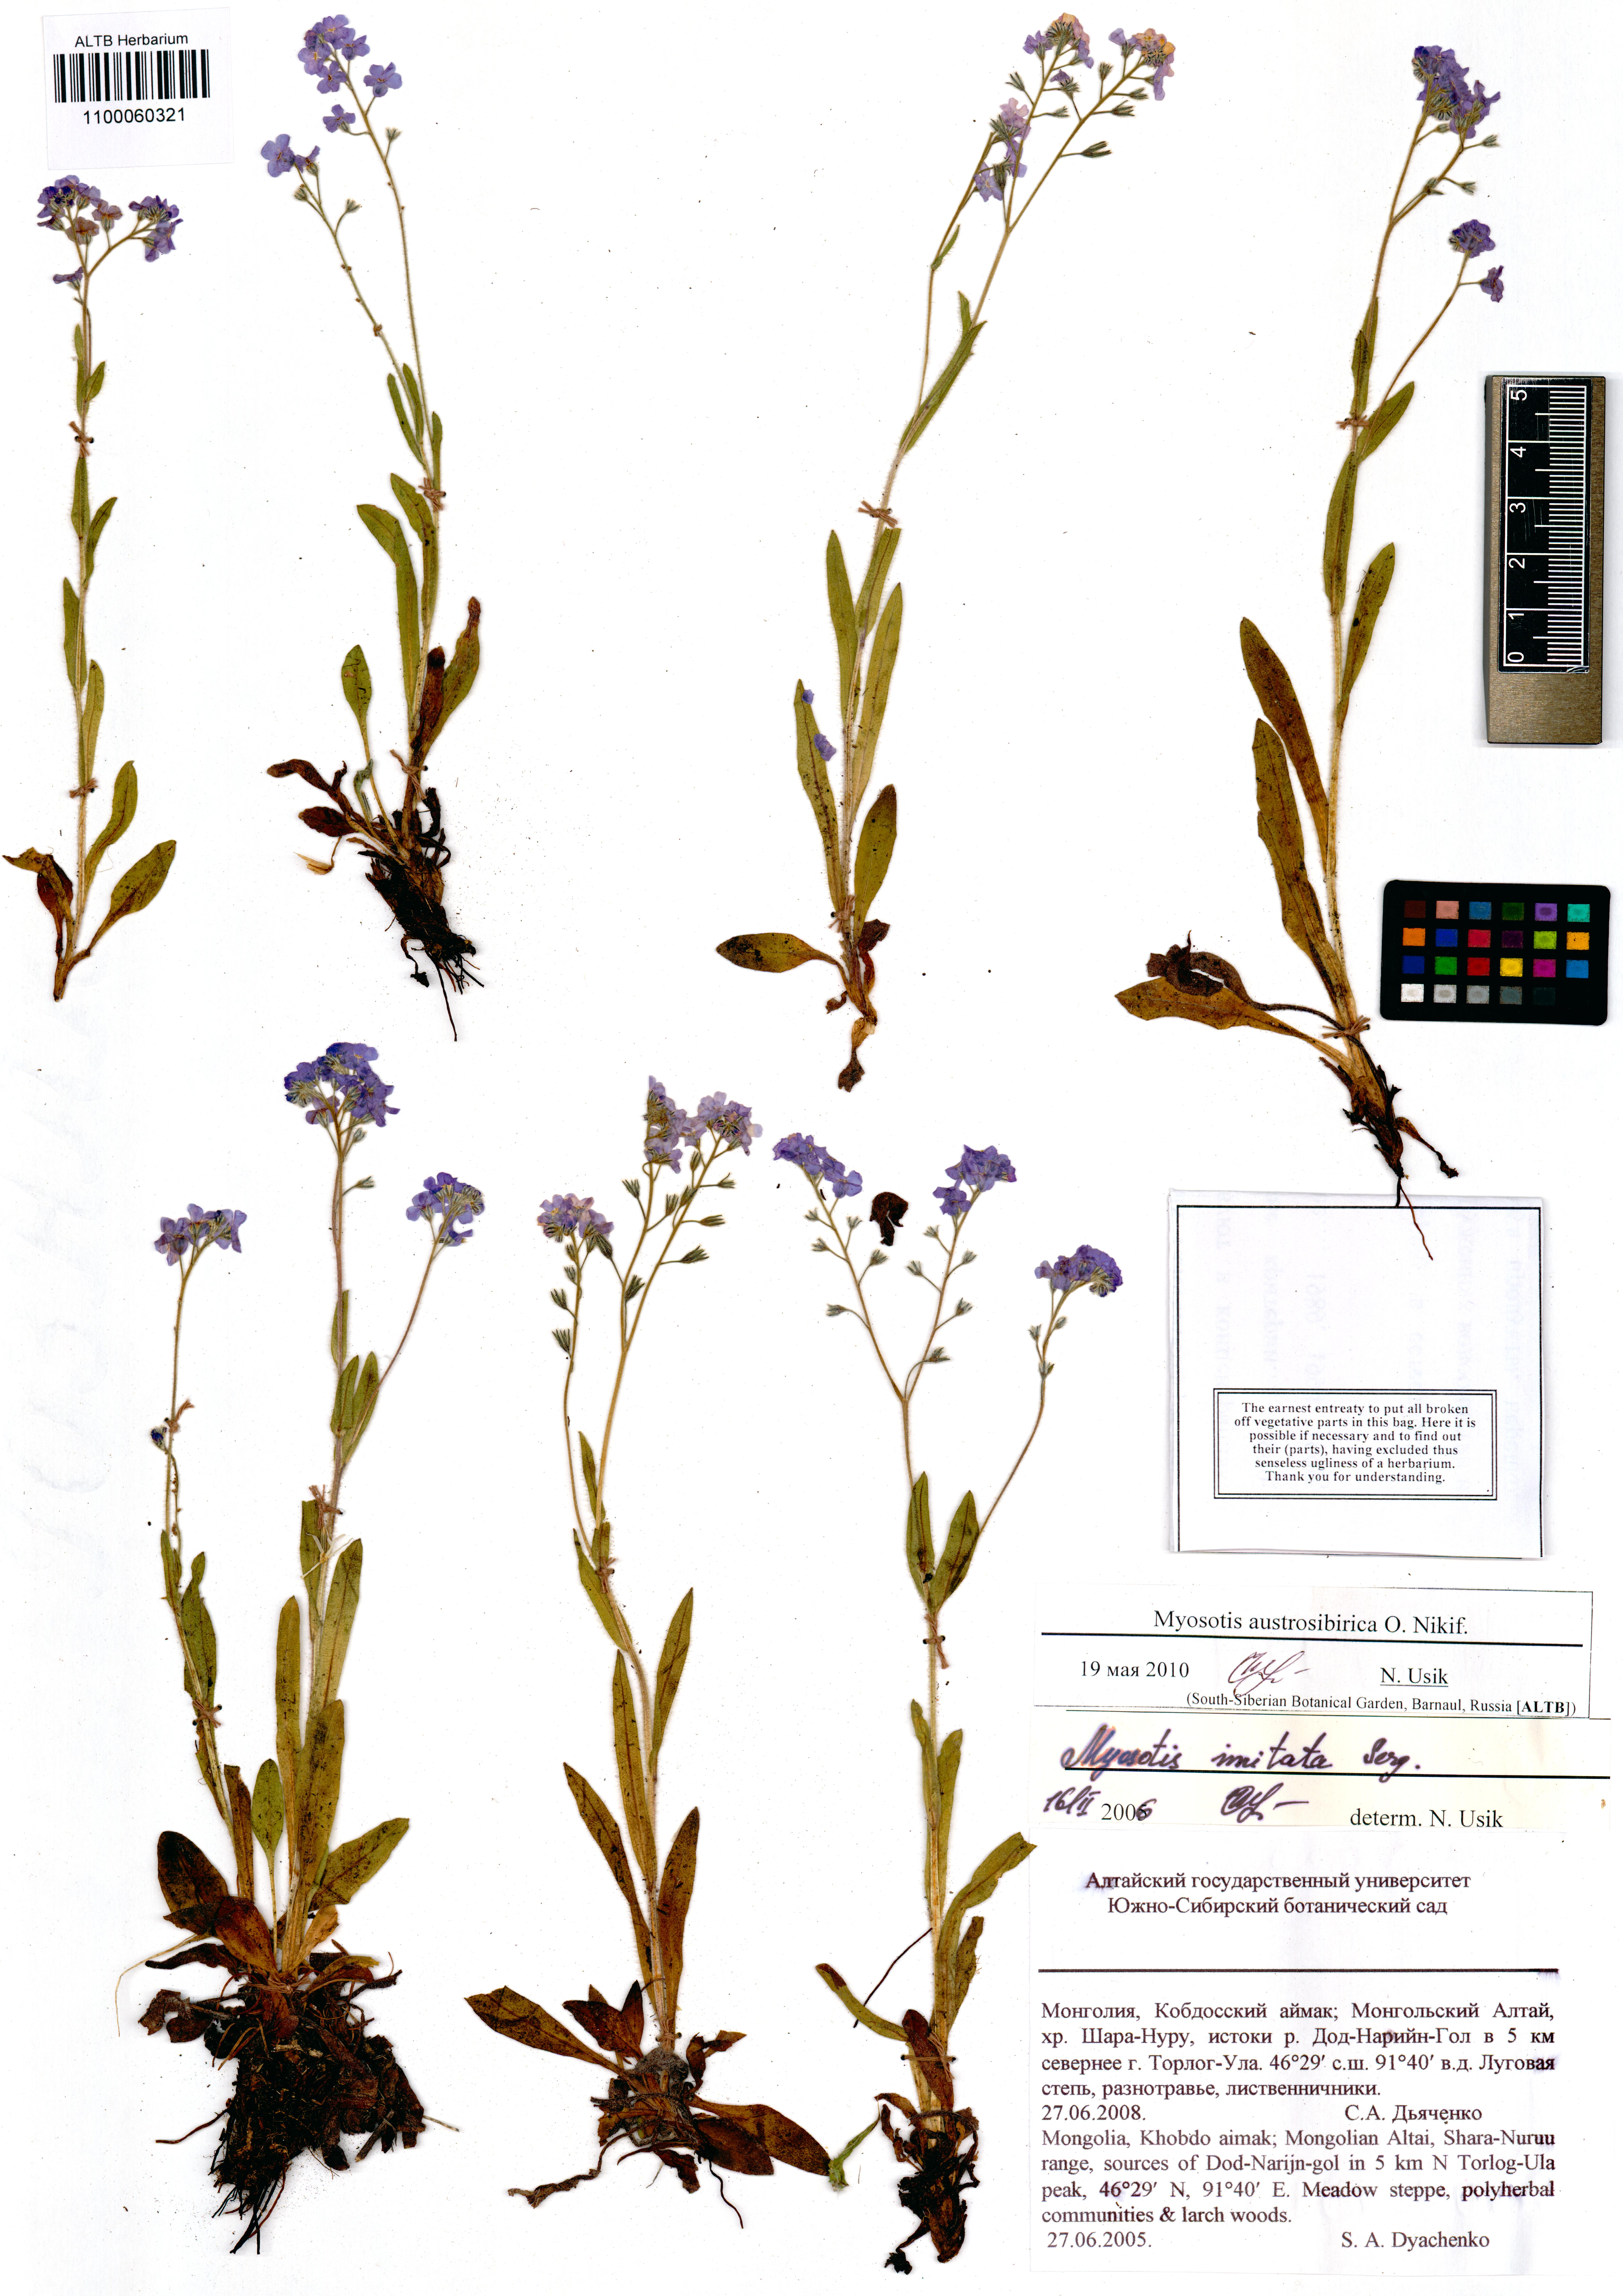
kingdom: Plantae
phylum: Tracheophyta
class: Magnoliopsida
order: Boraginales
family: Boraginaceae
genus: Myosotis
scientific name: Myosotis austrosibirica
